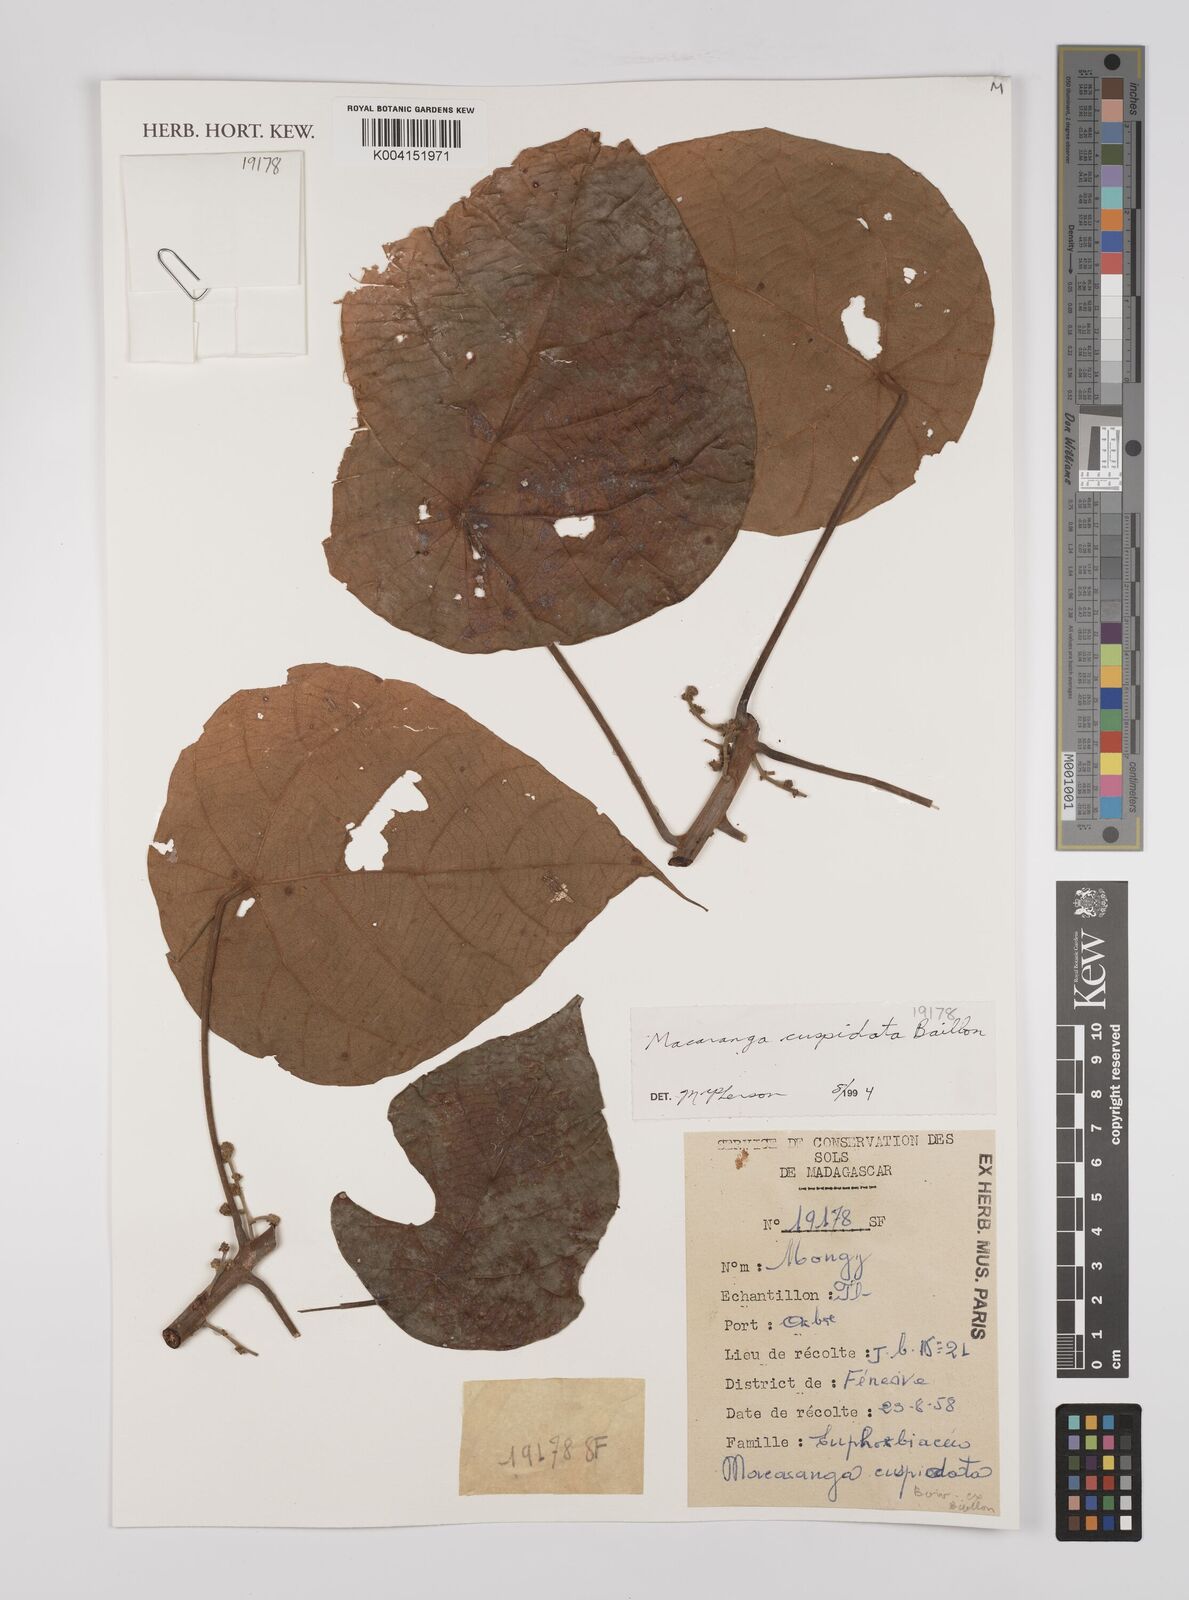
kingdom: Plantae
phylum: Tracheophyta
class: Magnoliopsida
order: Malpighiales
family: Euphorbiaceae
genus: Macaranga
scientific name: Macaranga cuspidata
